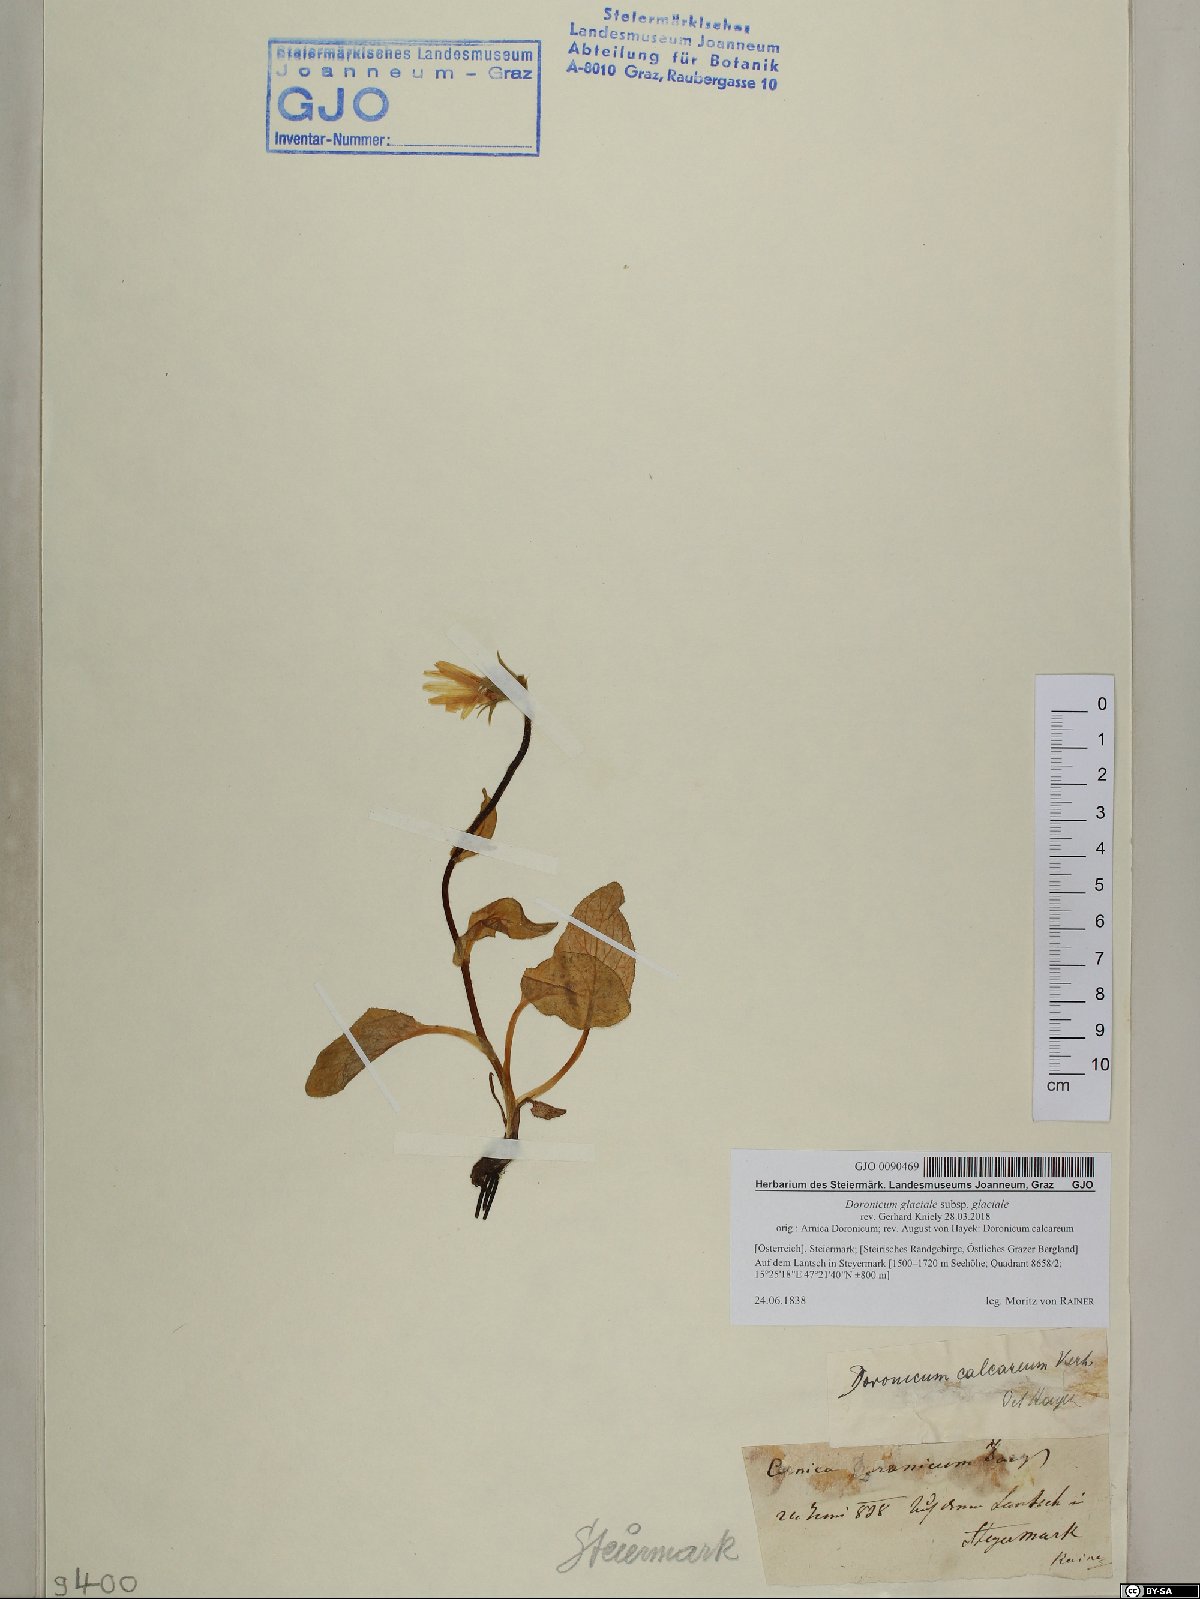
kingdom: Plantae
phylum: Tracheophyta
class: Magnoliopsida
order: Asterales
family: Asteraceae
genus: Doronicum
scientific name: Doronicum glaciale
